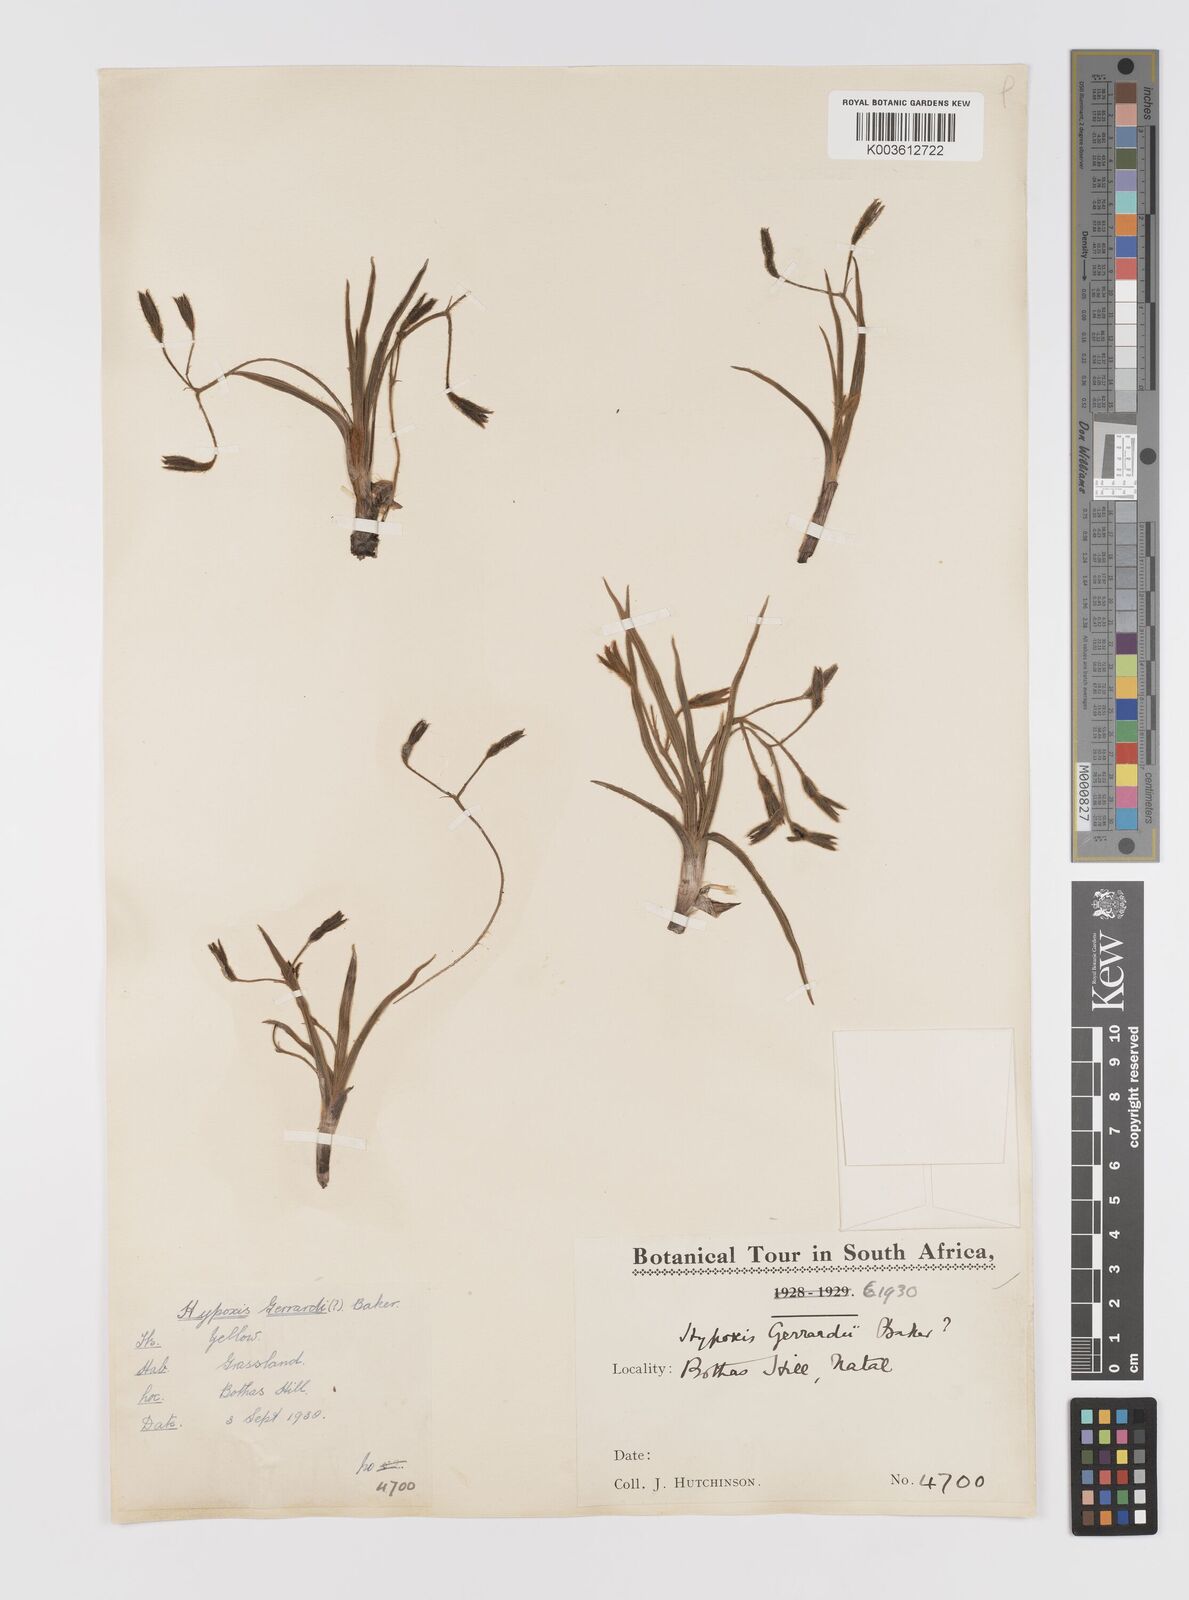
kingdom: Plantae
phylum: Tracheophyta
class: Liliopsida
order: Asparagales
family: Hypoxidaceae
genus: Hypoxis
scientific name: Hypoxis gerrardii
